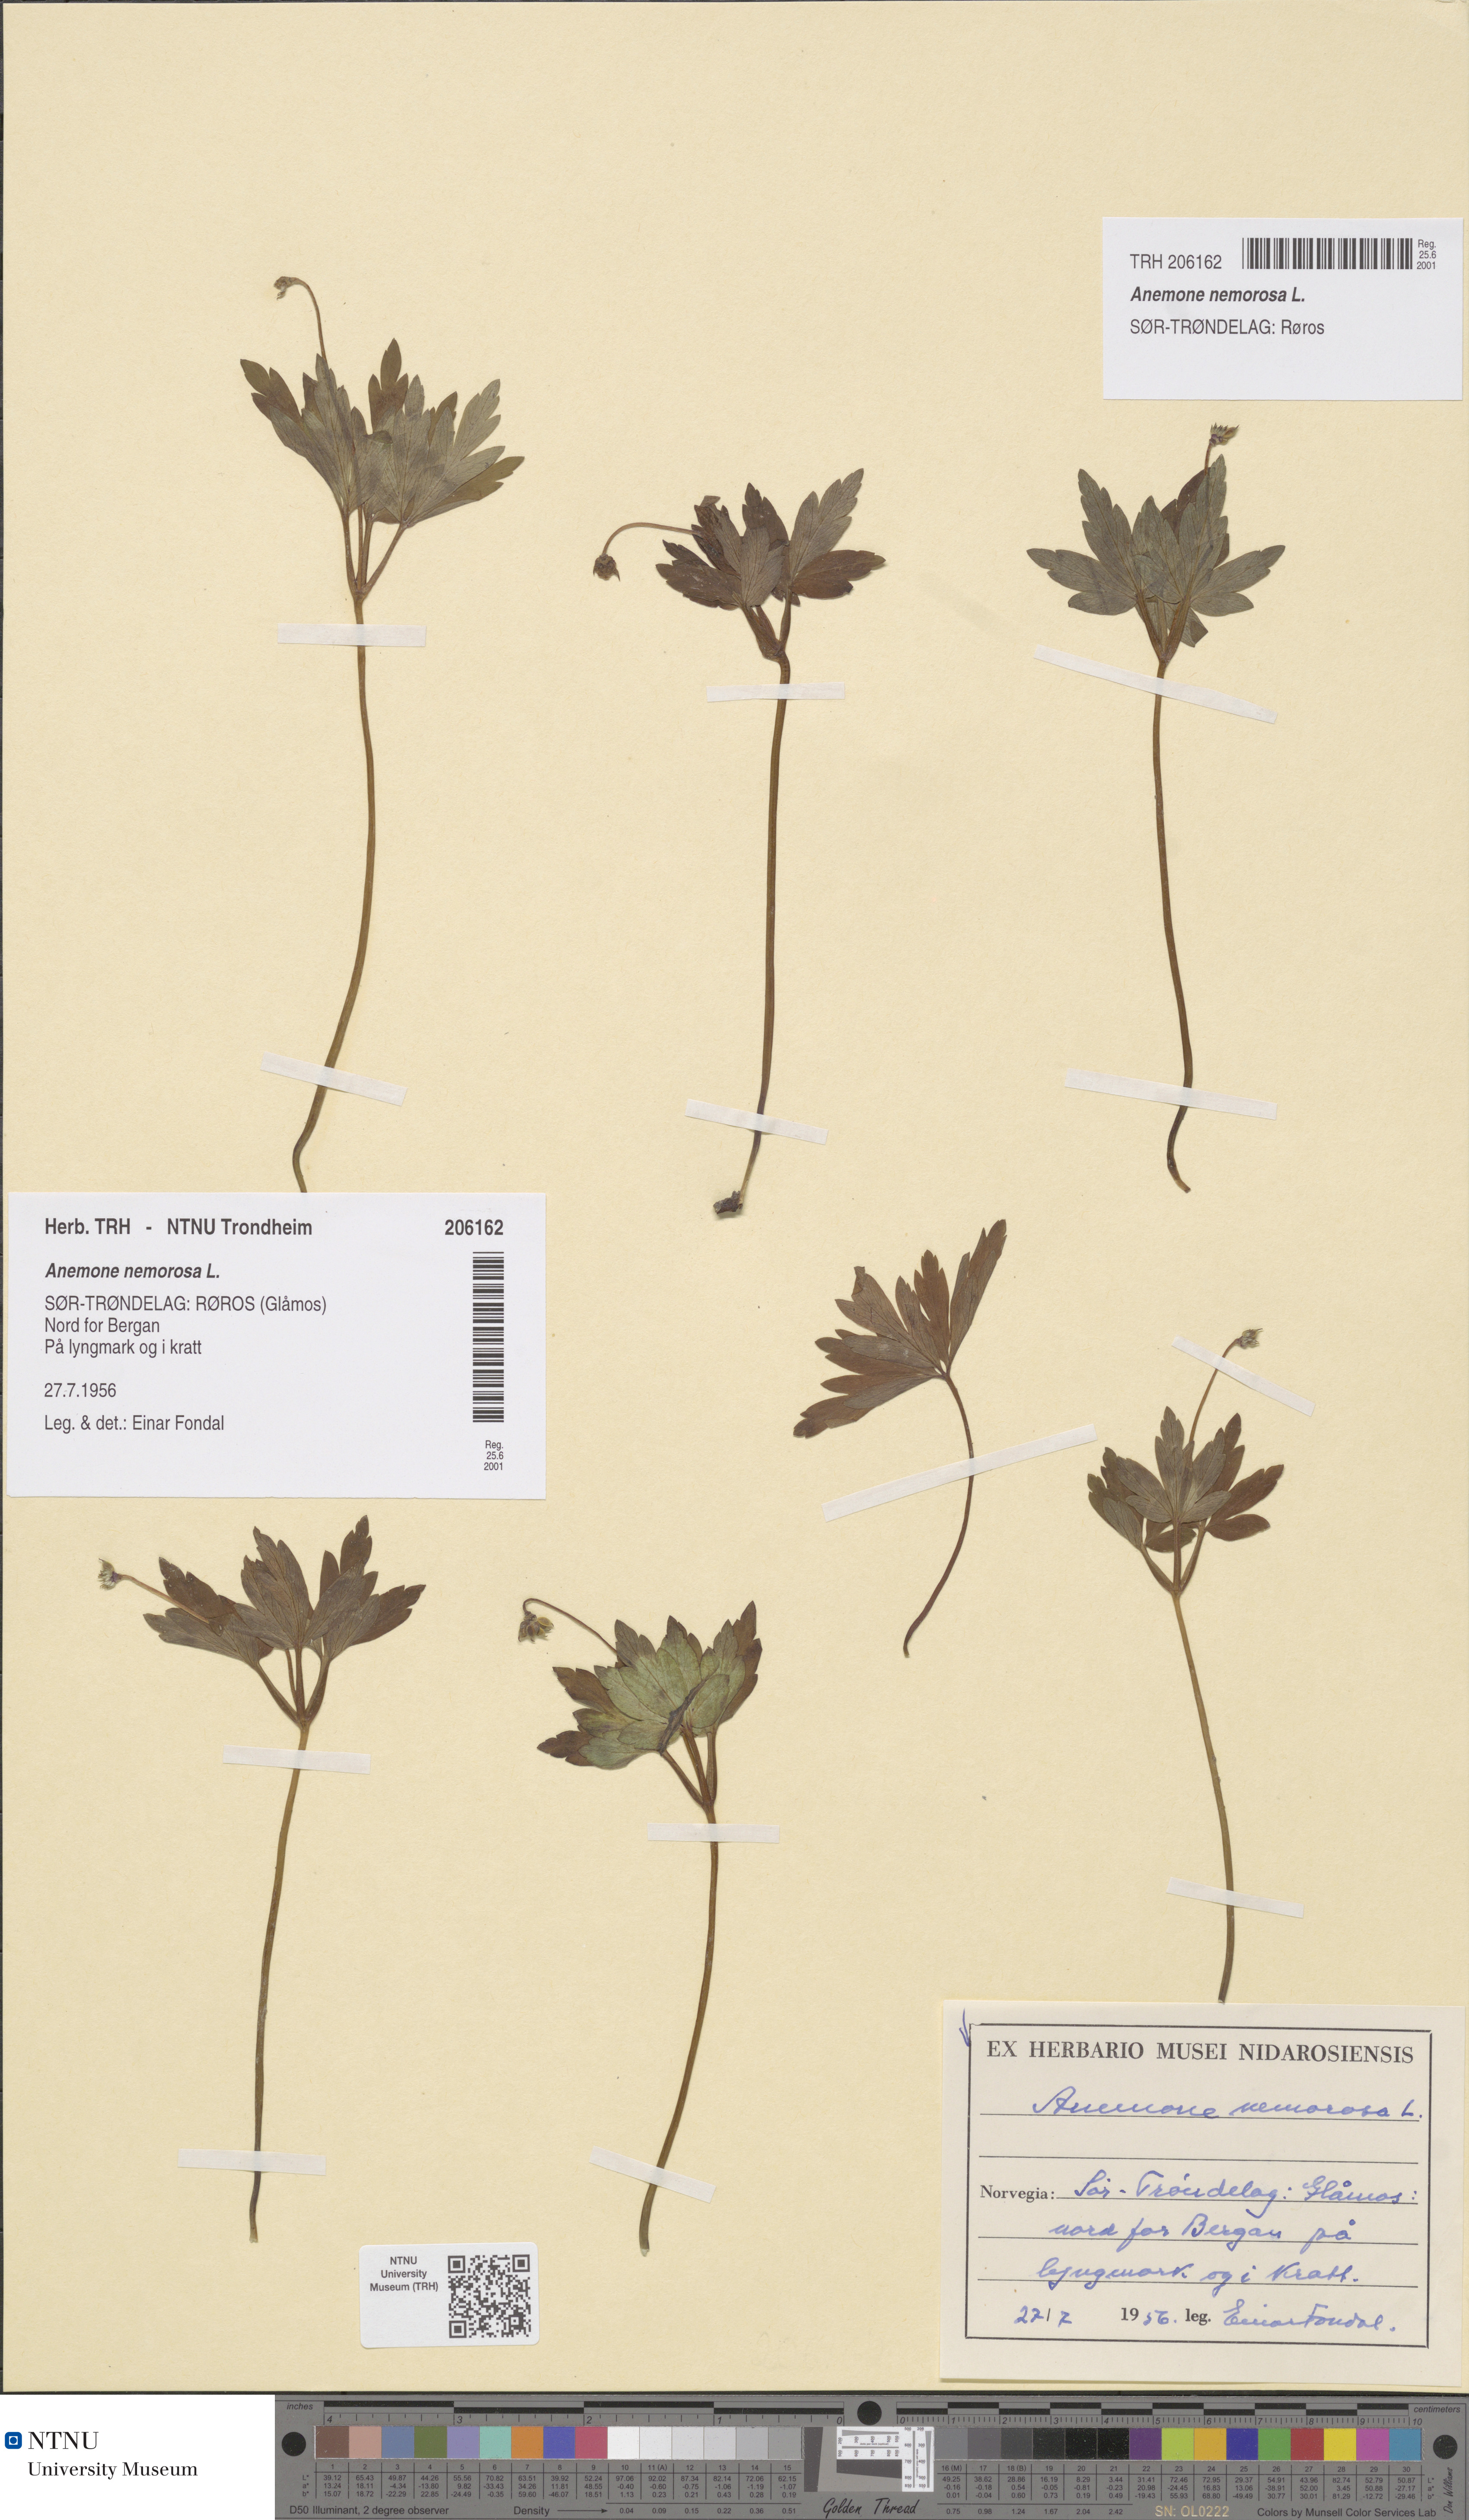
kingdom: Plantae
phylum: Tracheophyta
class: Magnoliopsida
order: Ranunculales
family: Ranunculaceae
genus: Anemone
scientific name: Anemone nemorosa
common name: Wood anemone
